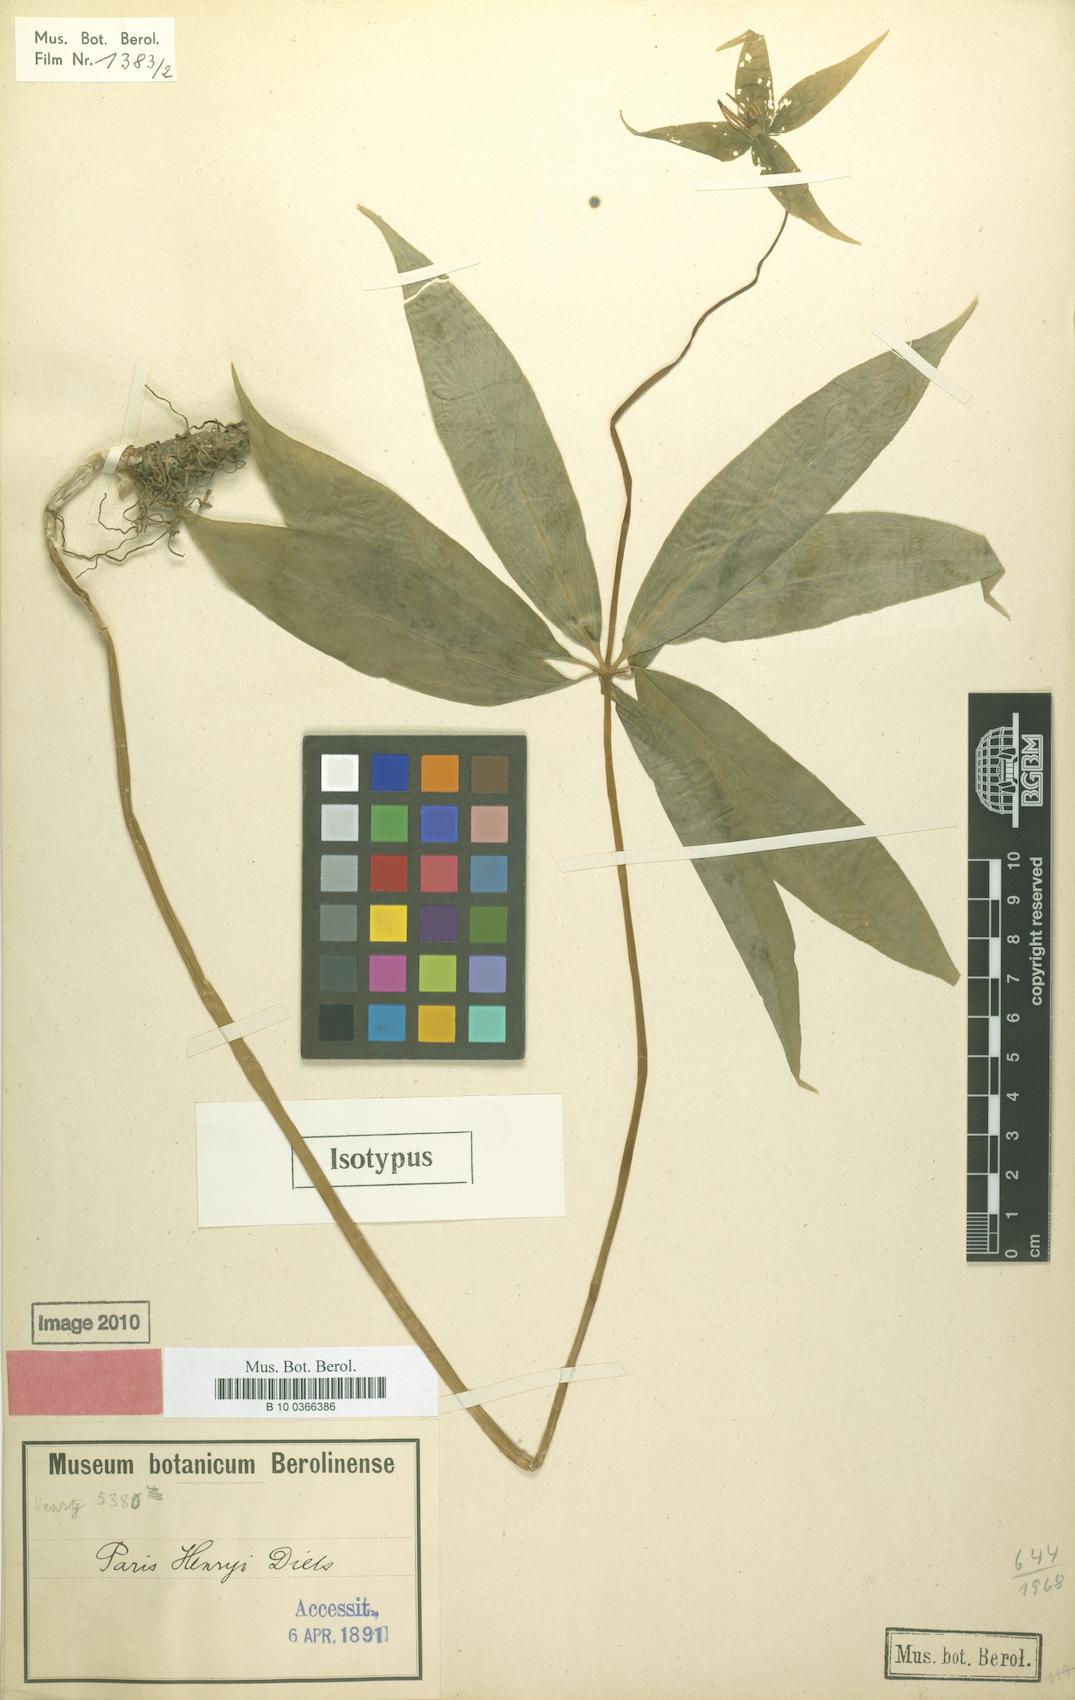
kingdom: Plantae
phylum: Tracheophyta
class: Liliopsida
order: Liliales
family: Melanthiaceae
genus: Paris
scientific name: Paris delavayi
